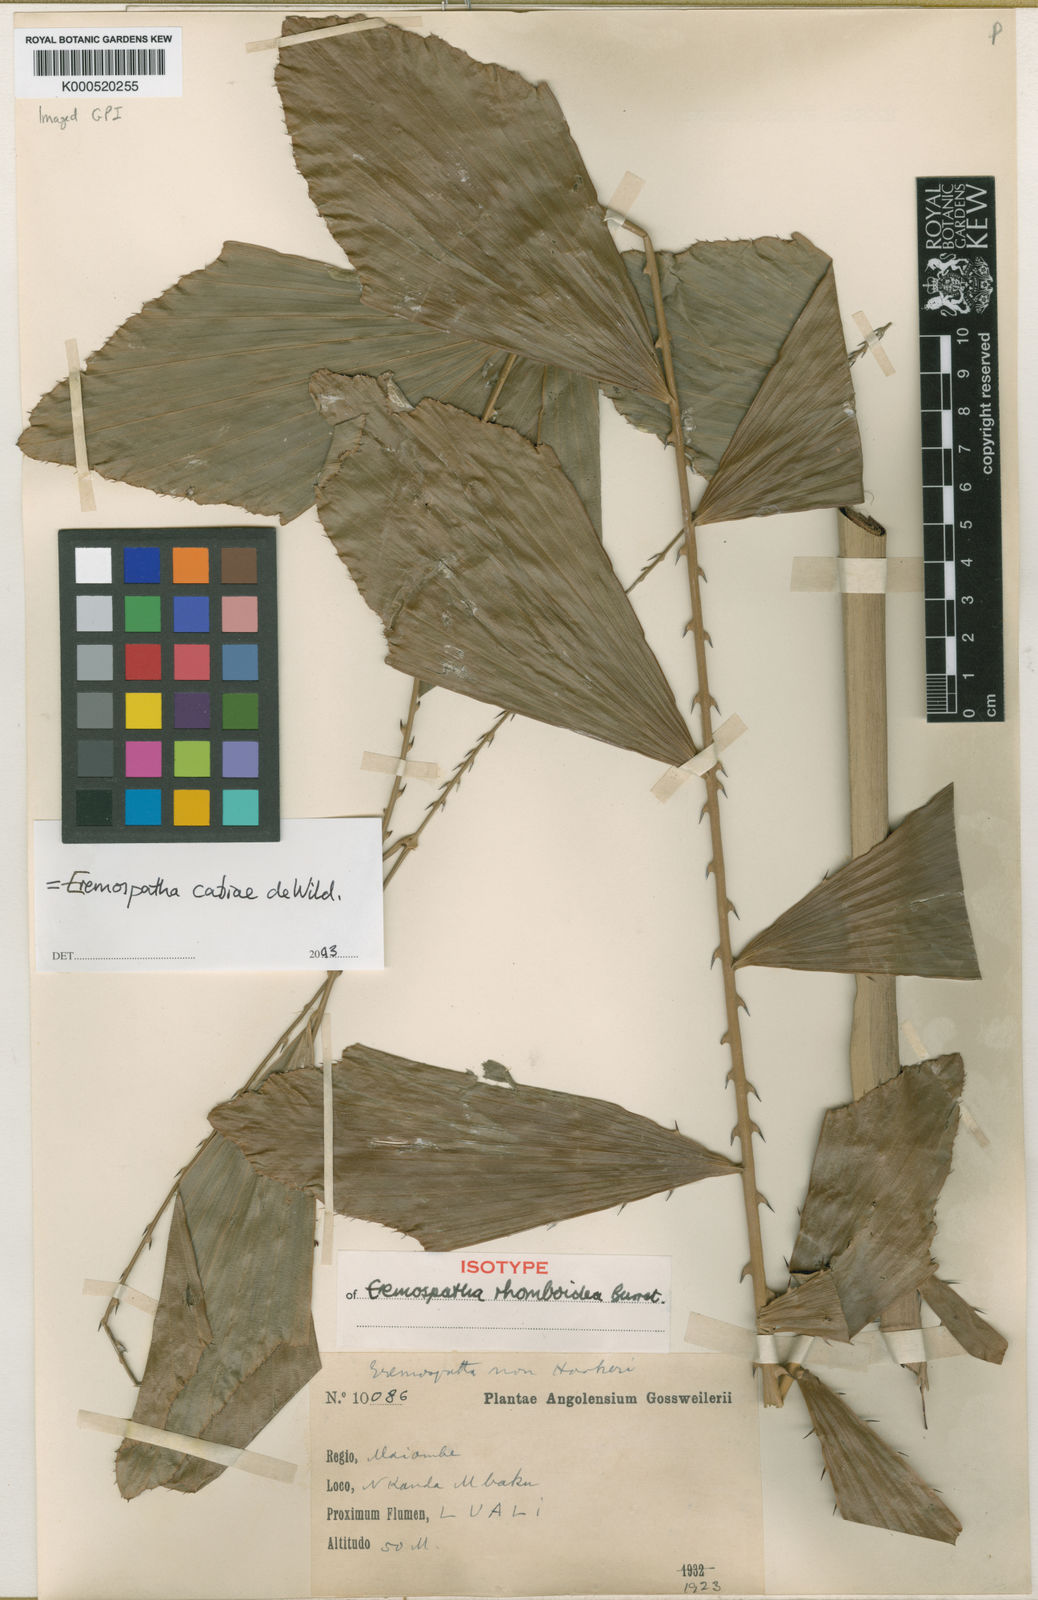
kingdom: Plantae
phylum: Tracheophyta
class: Liliopsida
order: Arecales
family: Arecaceae
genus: Eremospatha
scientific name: Eremospatha cabrae
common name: Rattan
